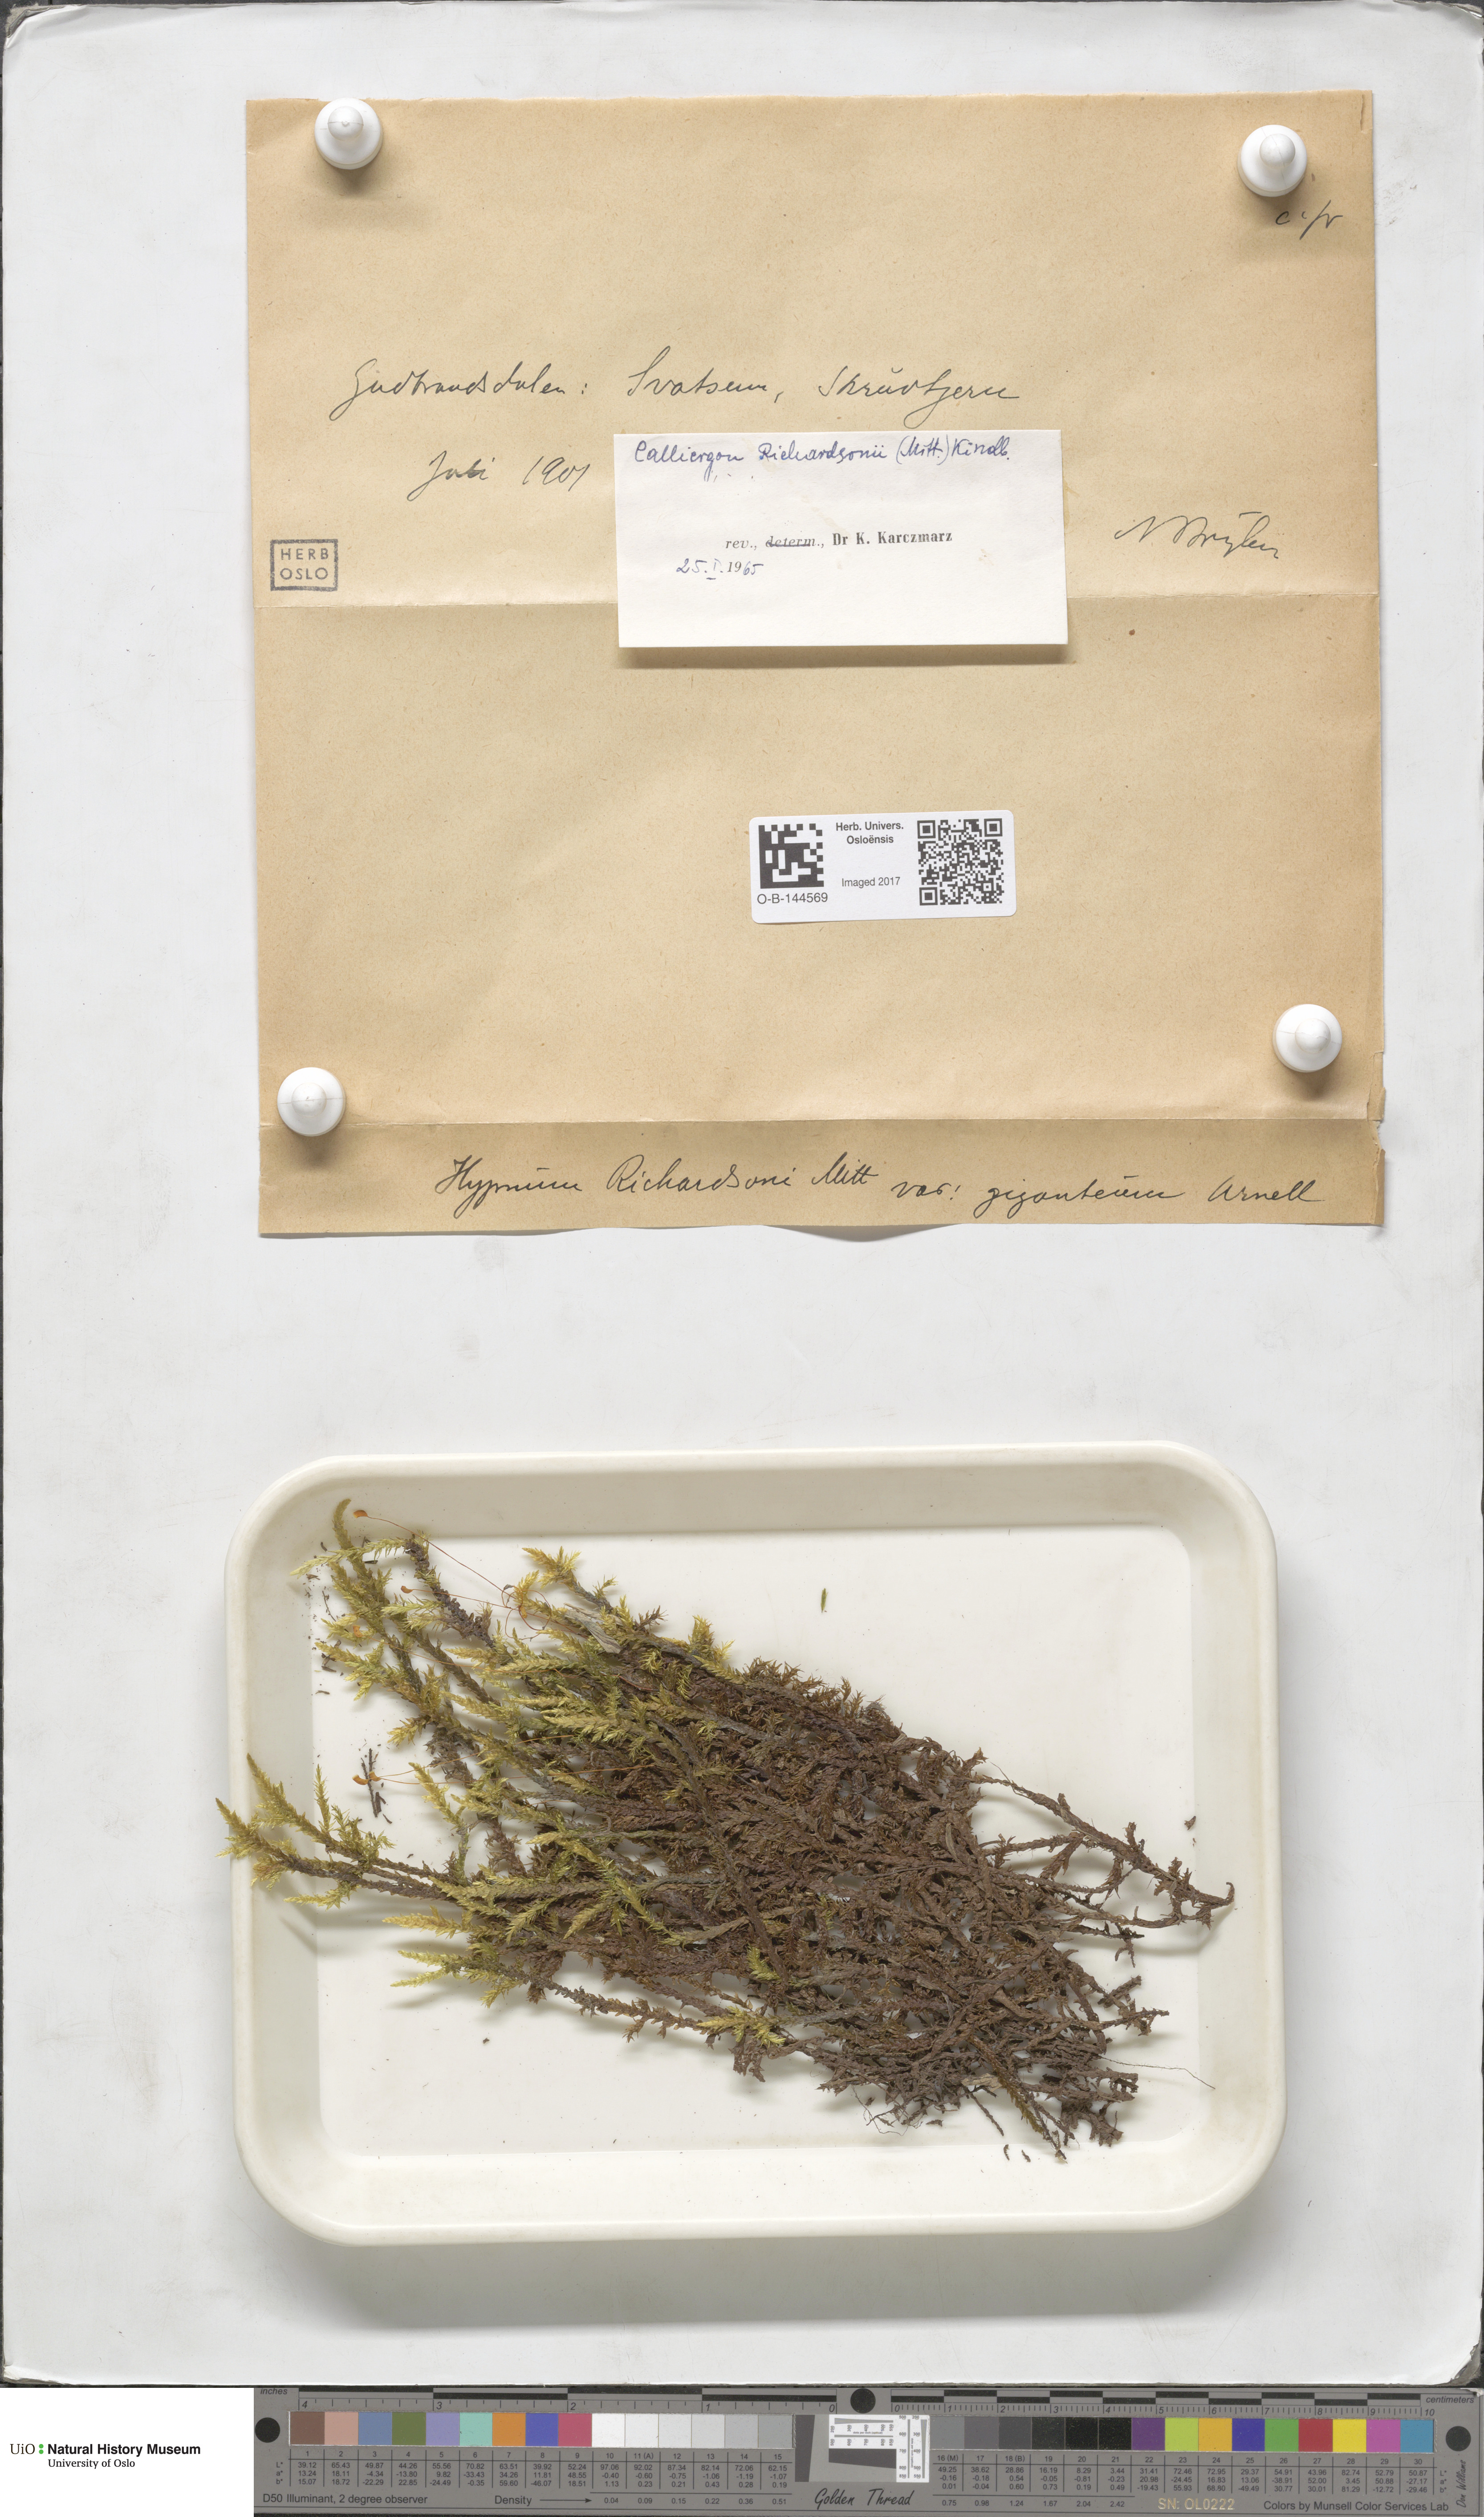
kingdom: Plantae
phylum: Bryophyta
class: Bryopsida
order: Hypnales
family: Calliergonaceae
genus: Calliergon
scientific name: Calliergon richardsonii
